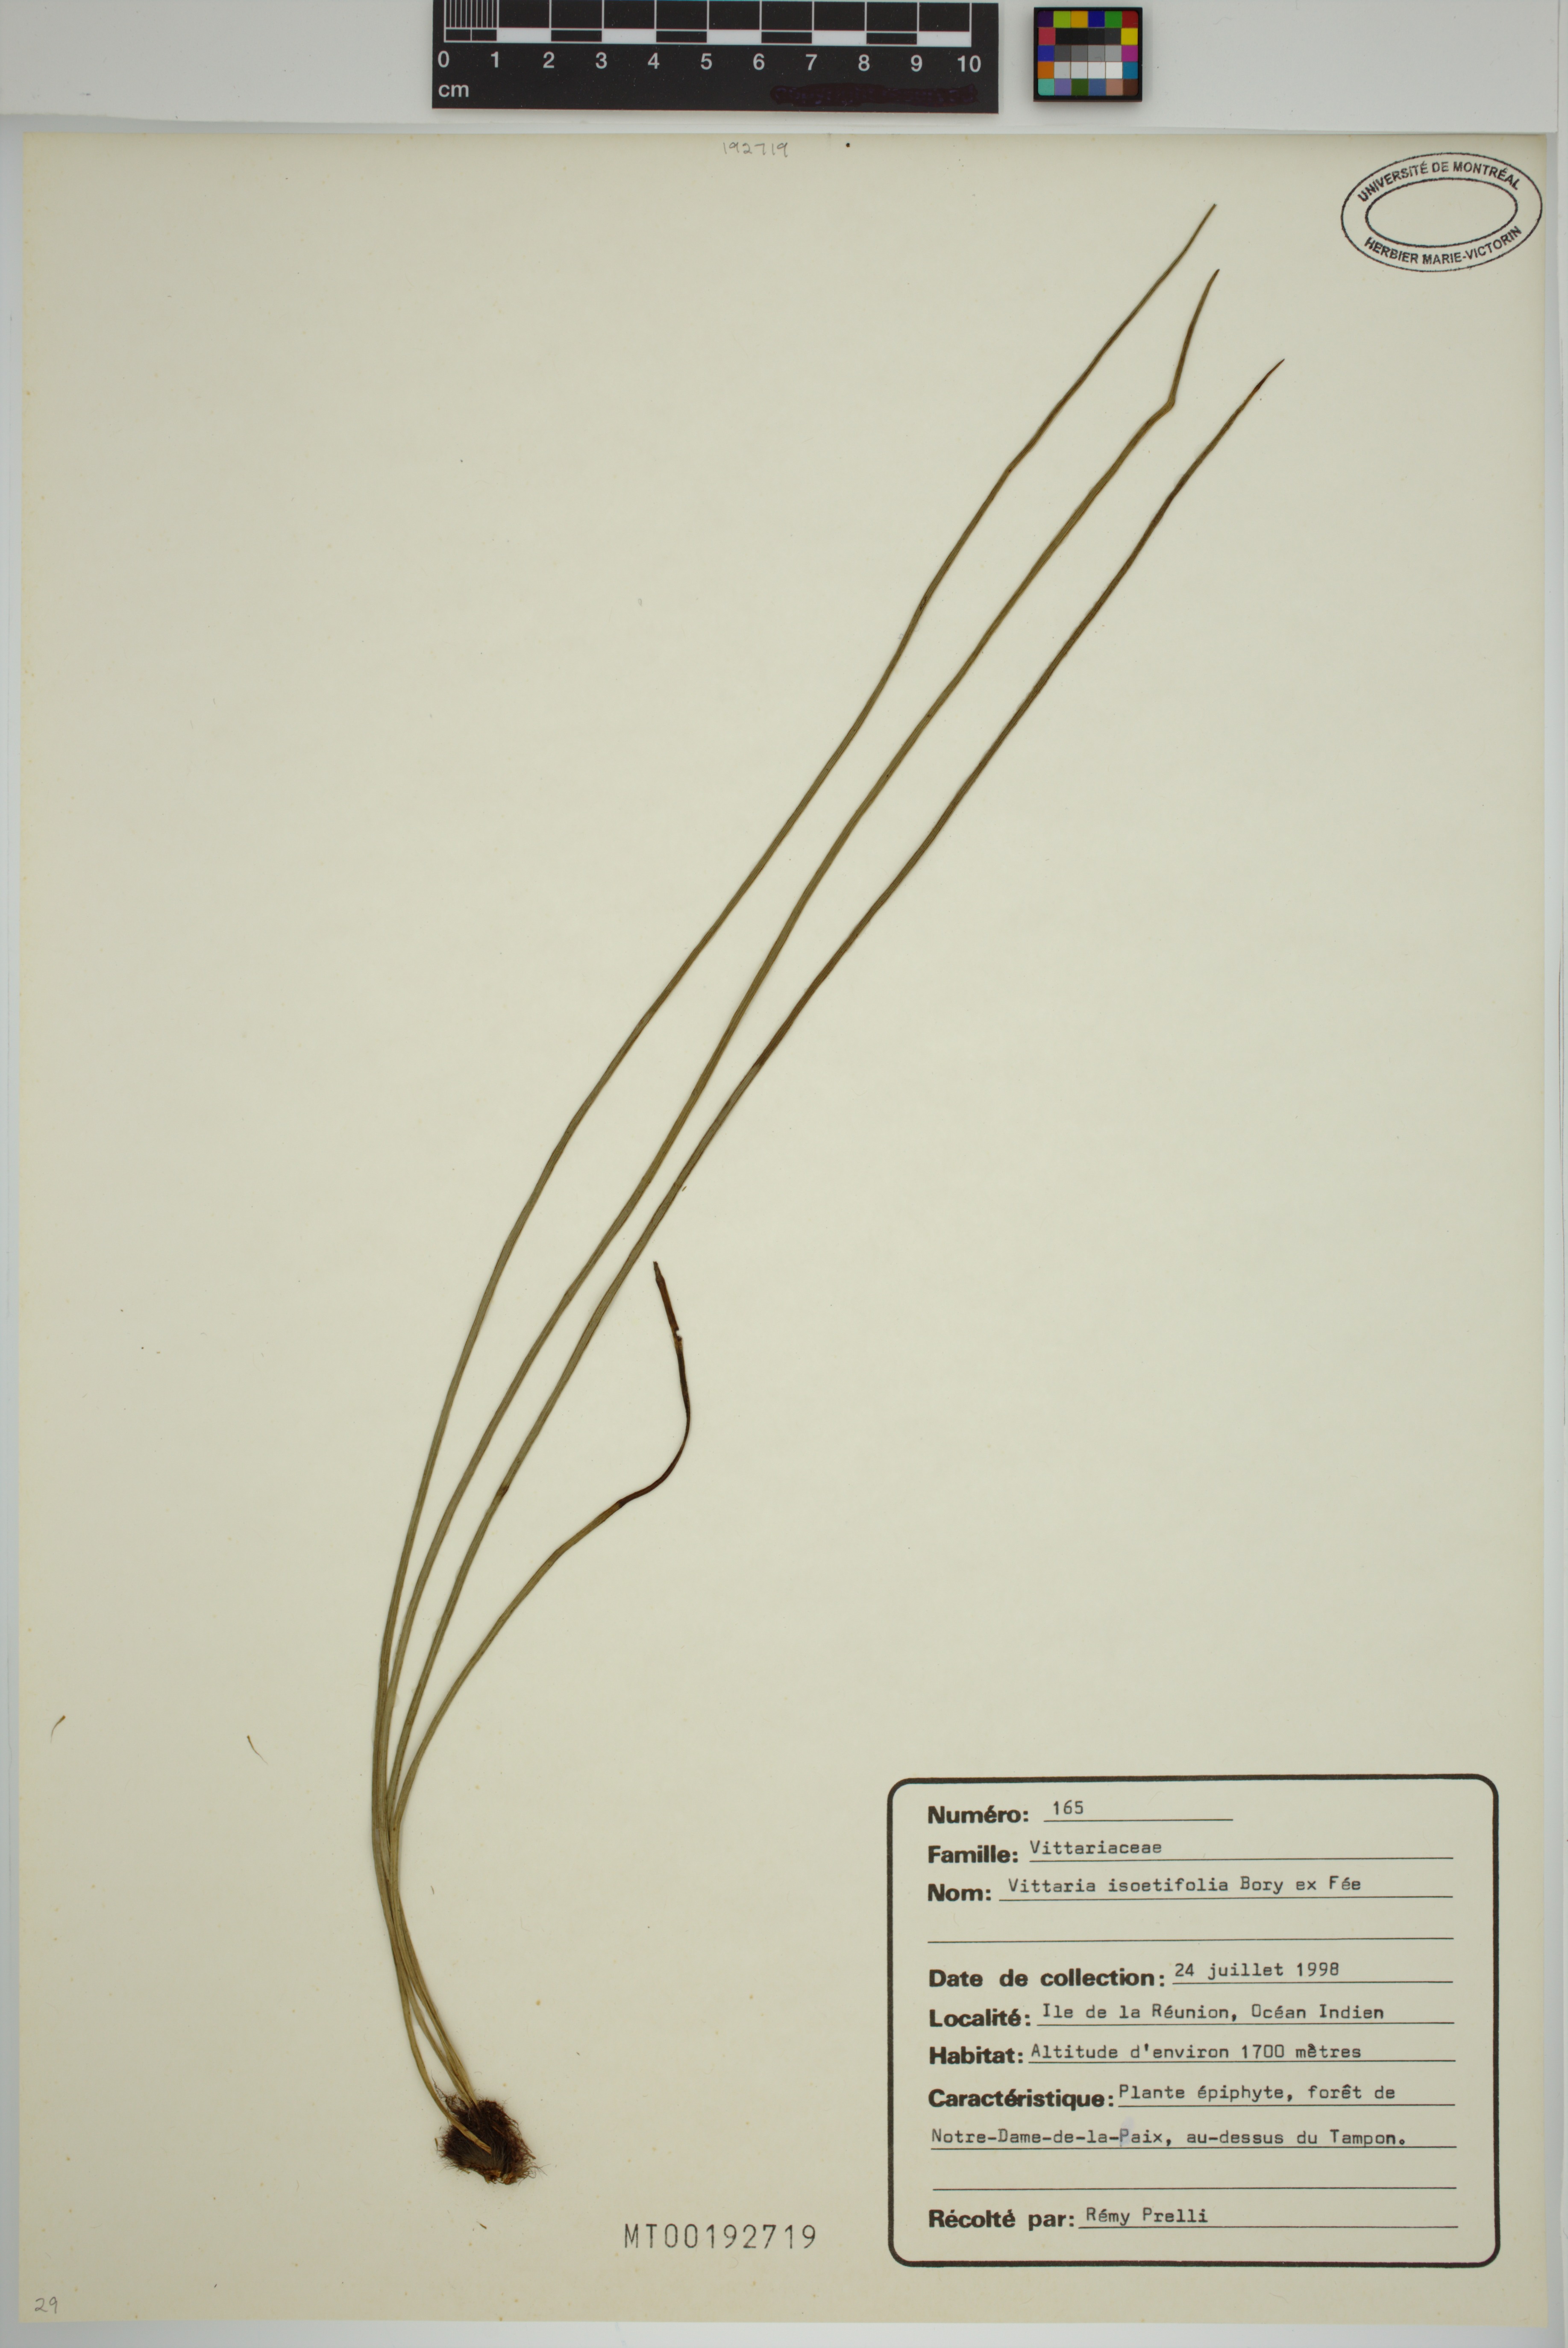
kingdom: Plantae
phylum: Tracheophyta
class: Polypodiopsida
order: Polypodiales
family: Pteridaceae
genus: Vittaria
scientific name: Vittaria isoetifolia
